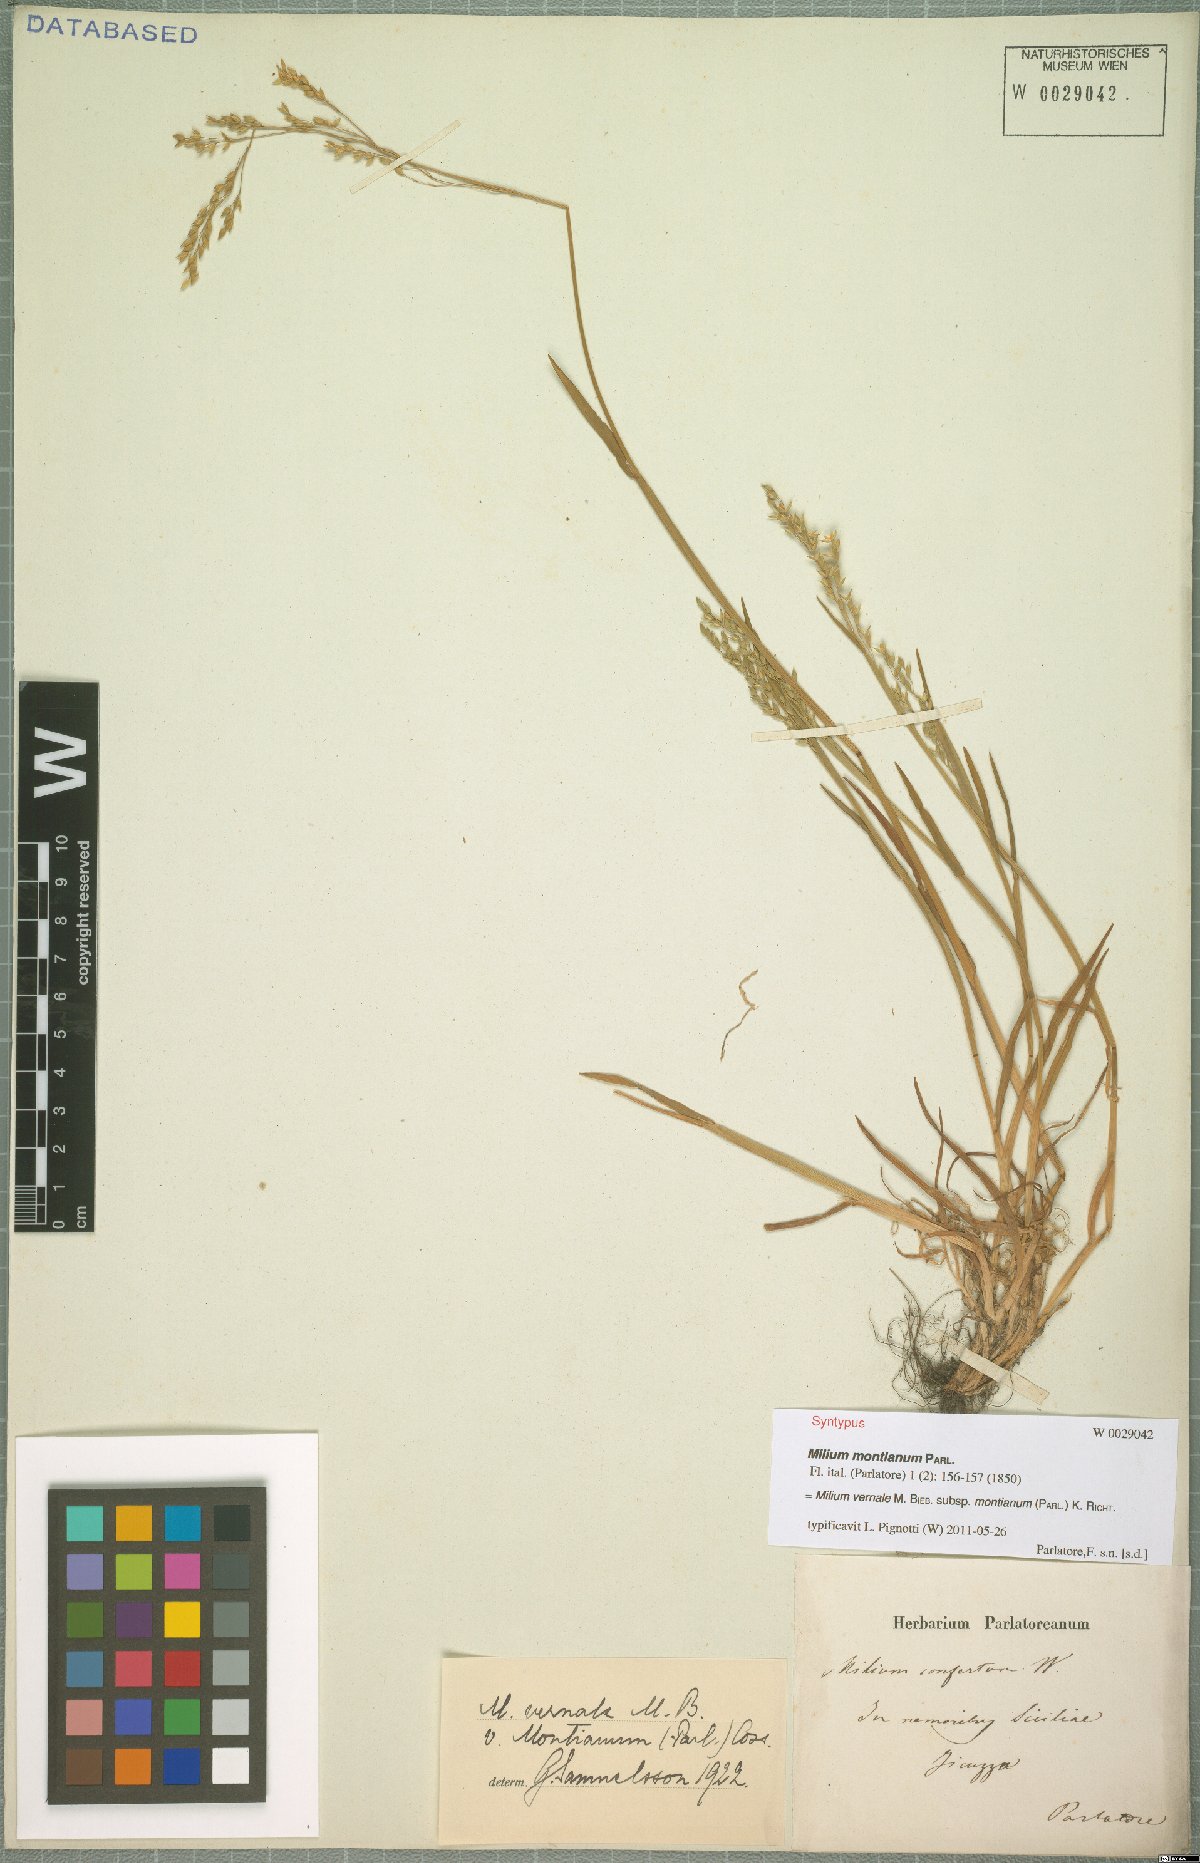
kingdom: Plantae
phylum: Tracheophyta
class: Liliopsida
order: Poales
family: Poaceae
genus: Milium
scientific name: Milium vernale
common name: Early millet
